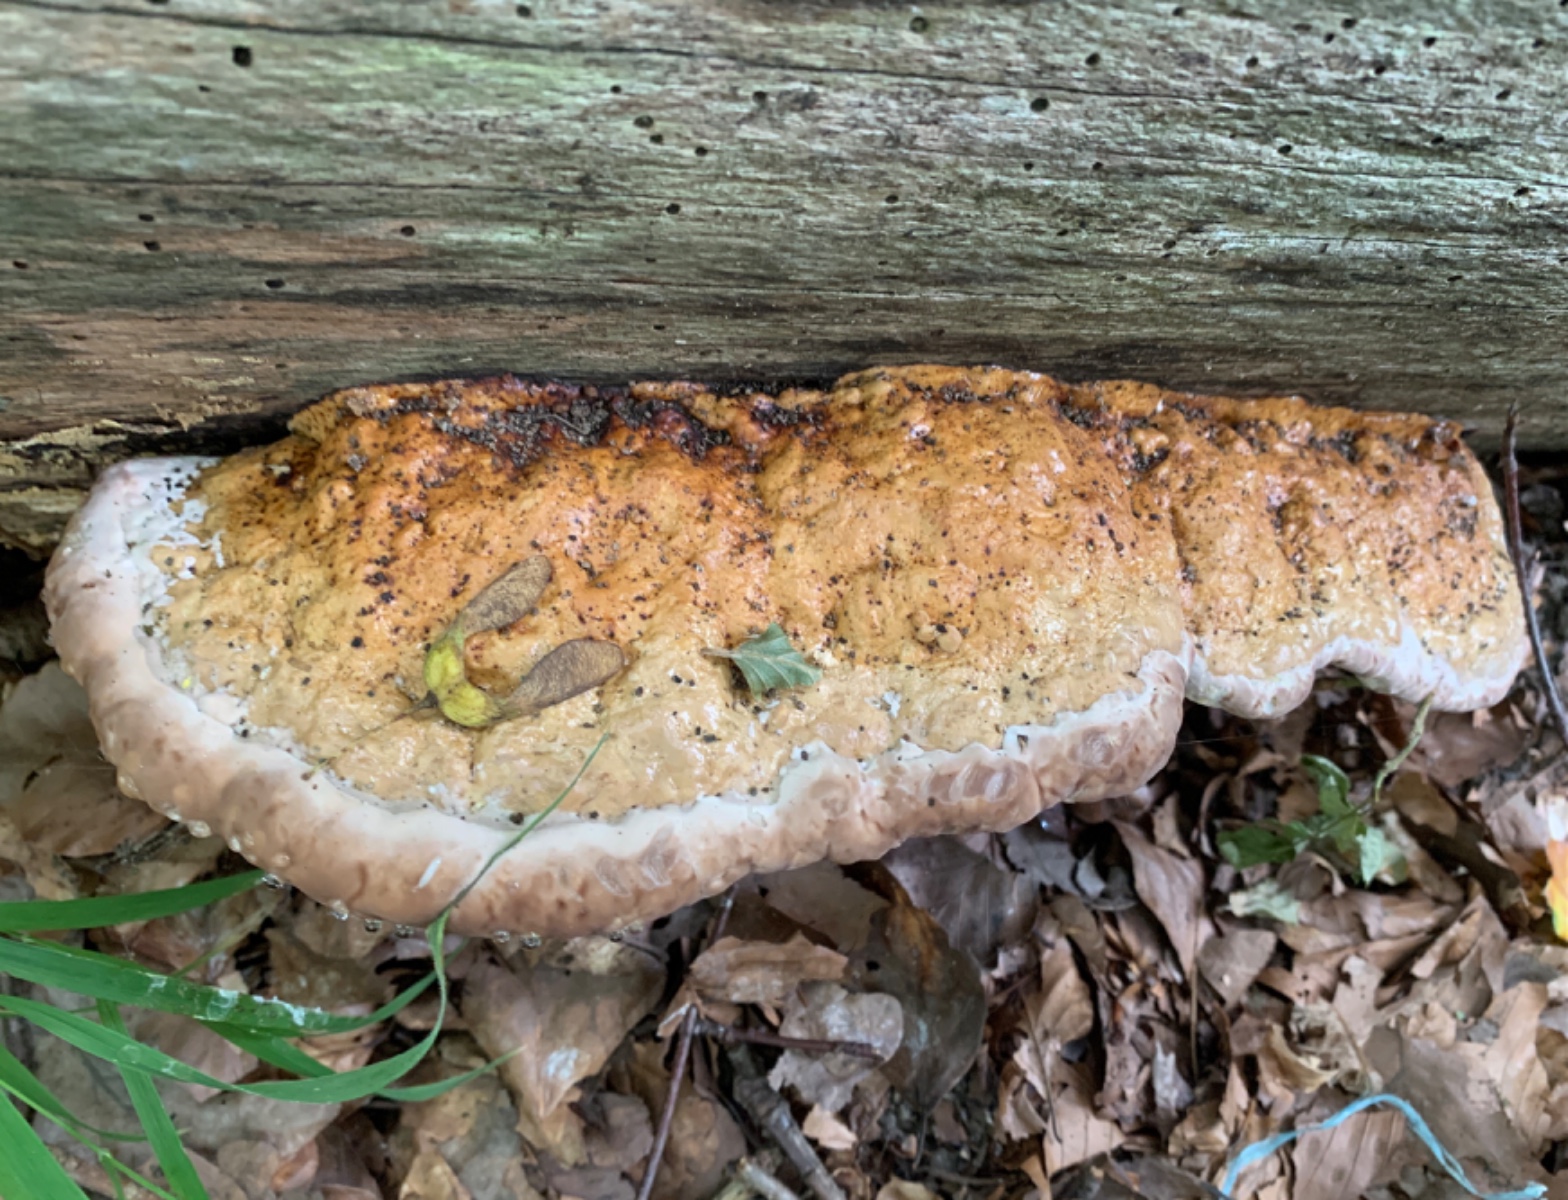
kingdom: Fungi
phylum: Basidiomycota
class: Agaricomycetes
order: Polyporales
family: Fomitopsidaceae
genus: Fomitopsis
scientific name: Fomitopsis pinicola
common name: randbæltet hovporesvamp
